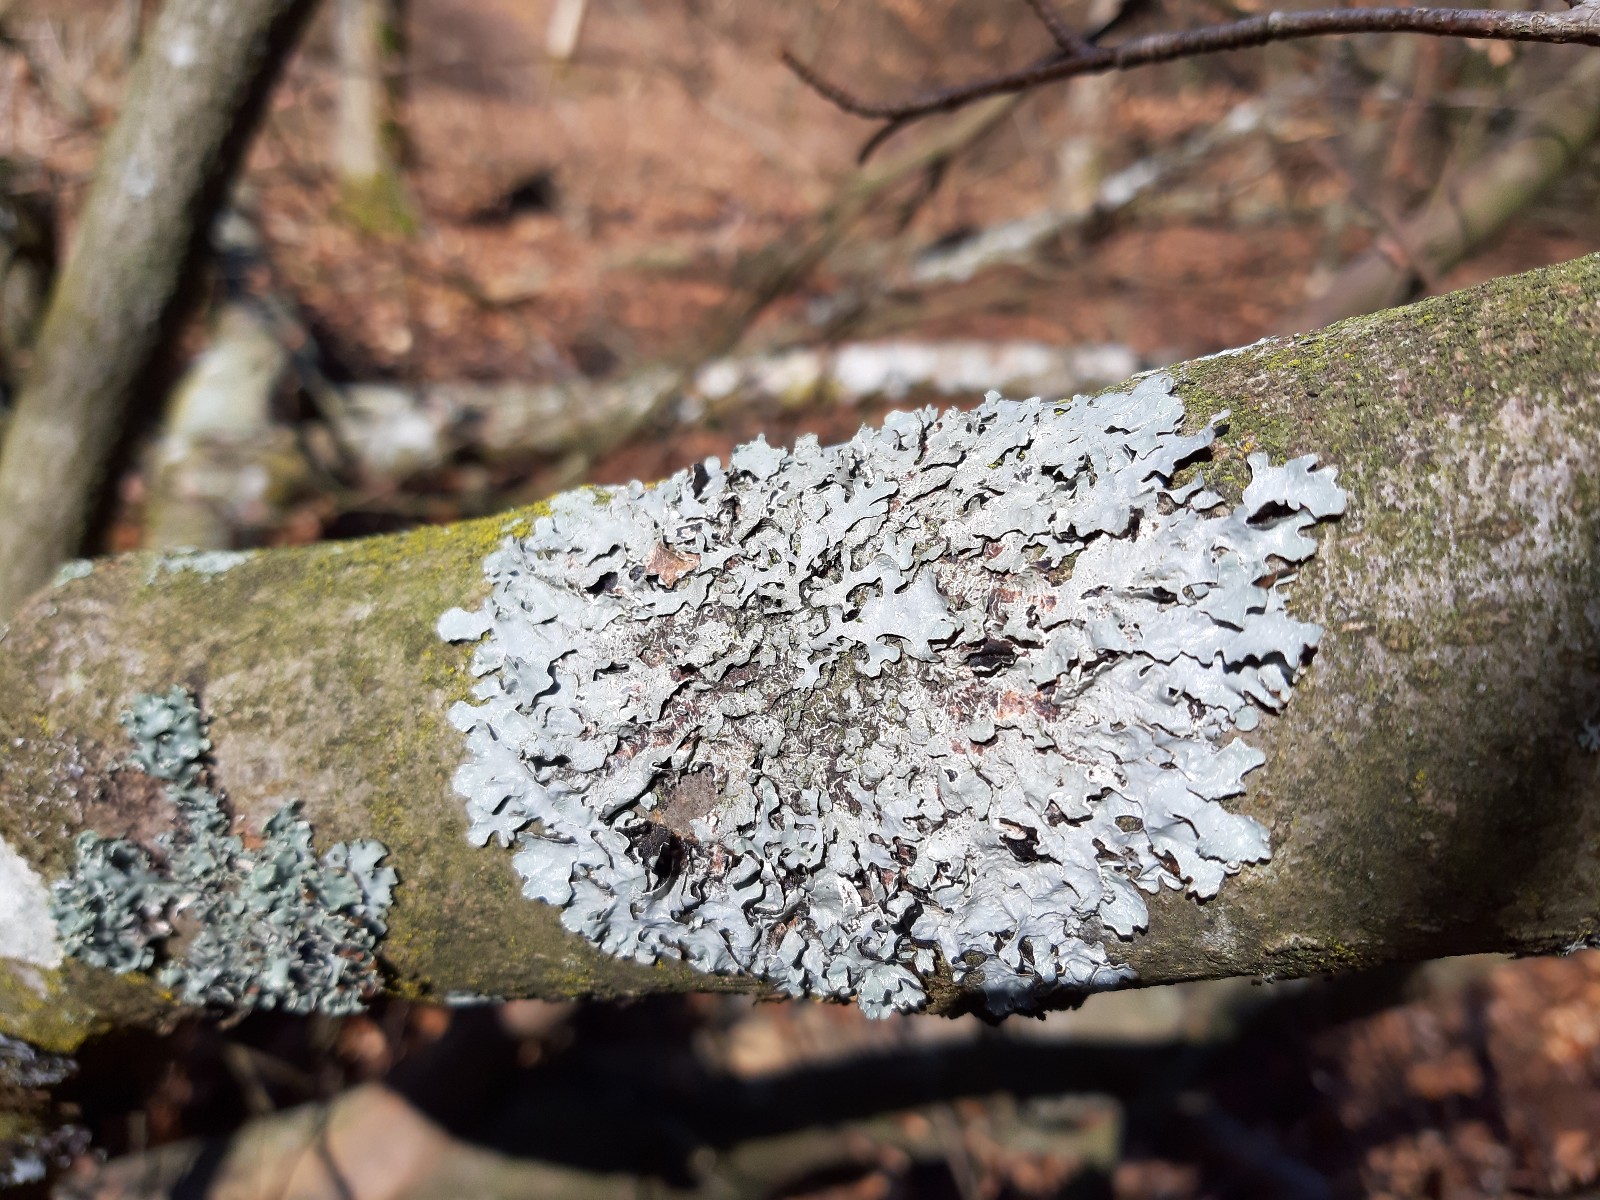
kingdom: Fungi
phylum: Ascomycota
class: Lecanoromycetes
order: Lecanorales
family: Parmeliaceae
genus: Parmelia
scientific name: Parmelia sulcata
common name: rynket skållav
